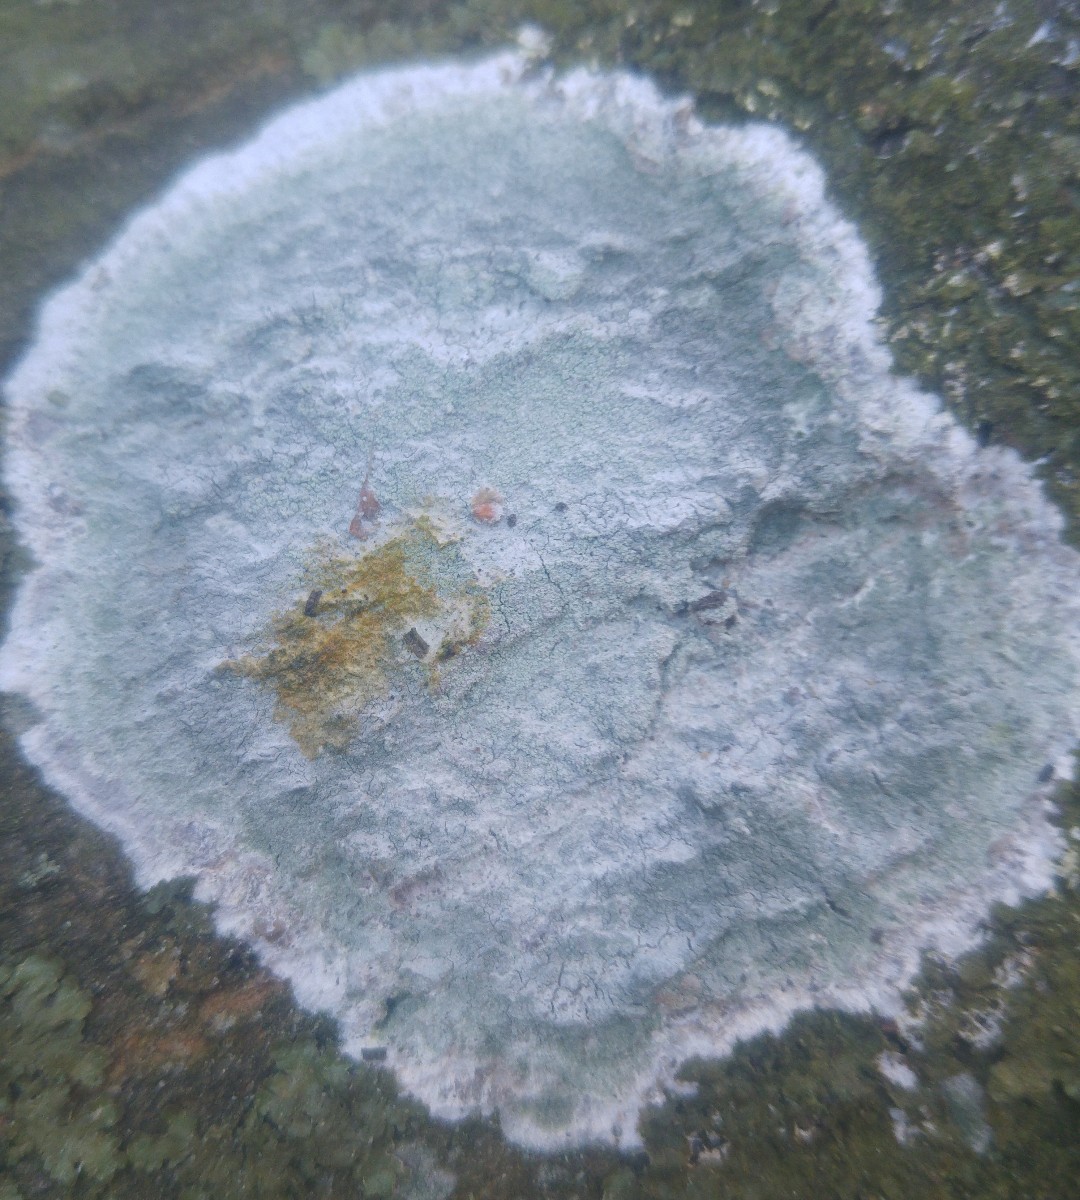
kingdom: Fungi
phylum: Ascomycota
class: Lecanoromycetes
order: Ostropales
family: Phlyctidaceae
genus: Phlyctis
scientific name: Phlyctis argena
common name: almindelig sølvlav
